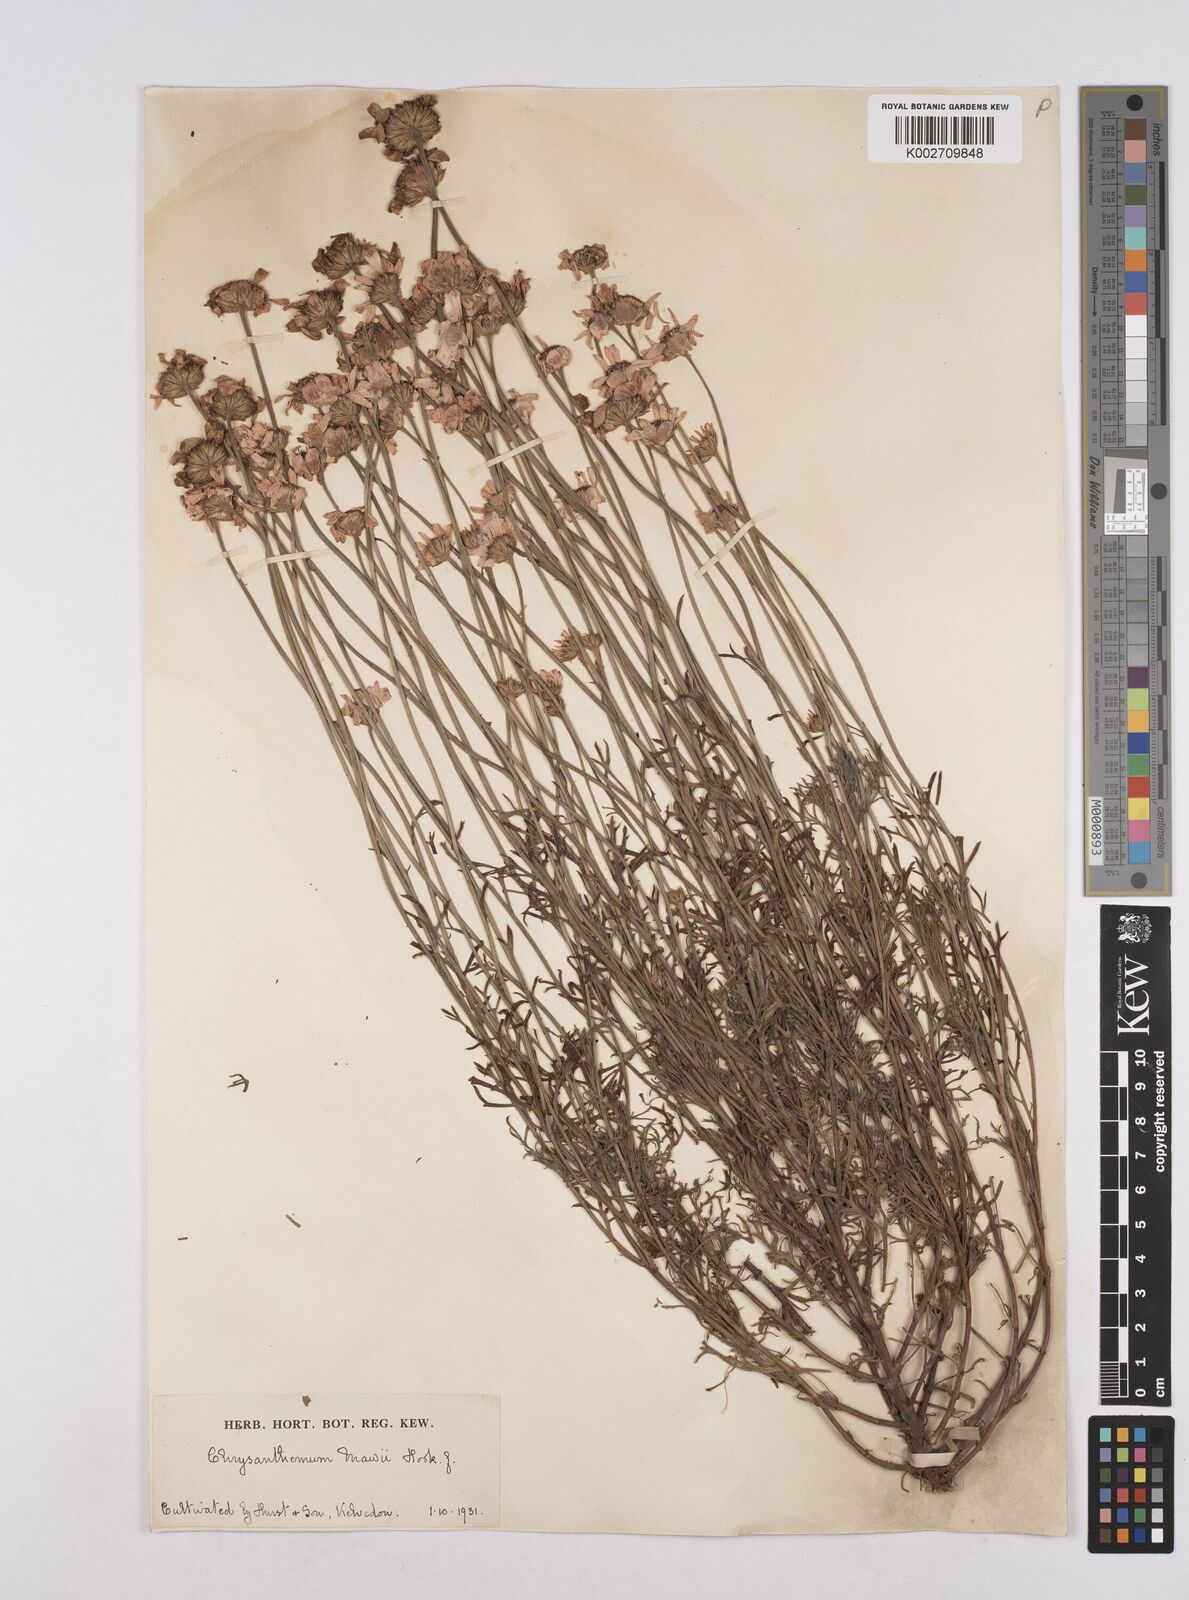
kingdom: Plantae
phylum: Tracheophyta
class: Magnoliopsida
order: Asterales
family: Asteraceae
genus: Rhodanthemum
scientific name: Rhodanthemum gayanum
